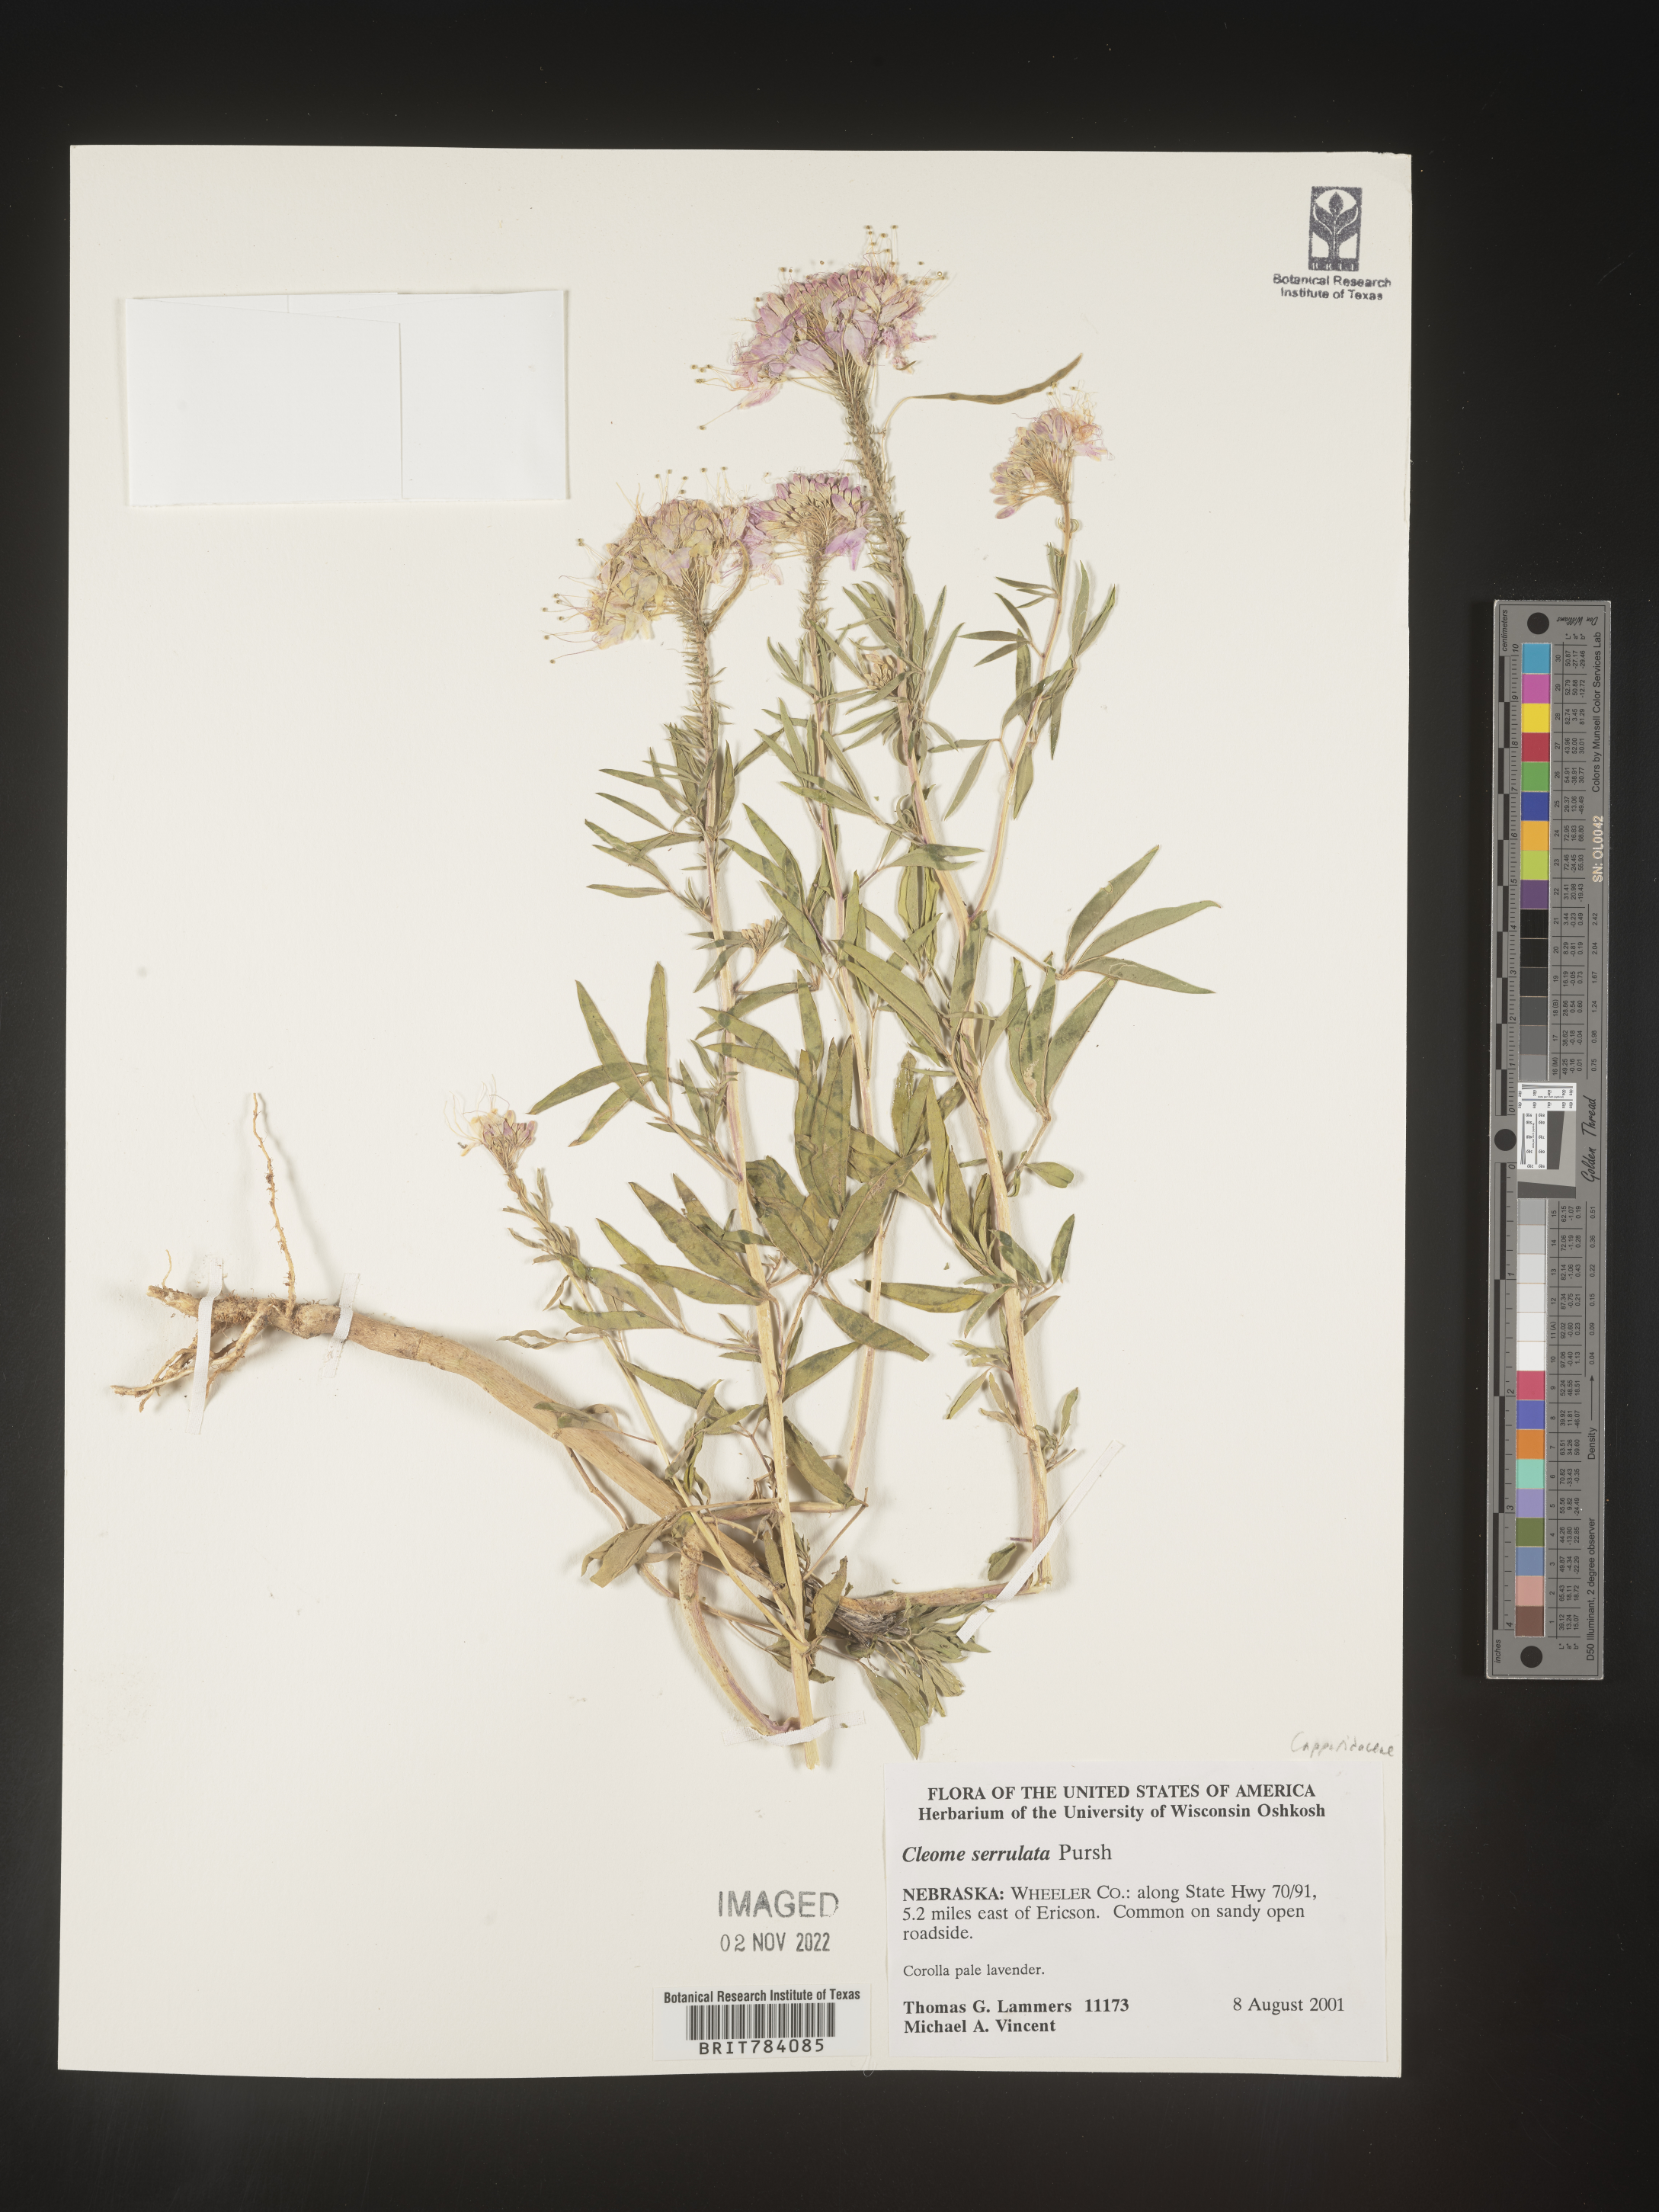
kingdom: Plantae
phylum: Tracheophyta
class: Magnoliopsida
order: Brassicales
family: Cleomaceae
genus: Cleomella
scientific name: Cleomella serrulata
